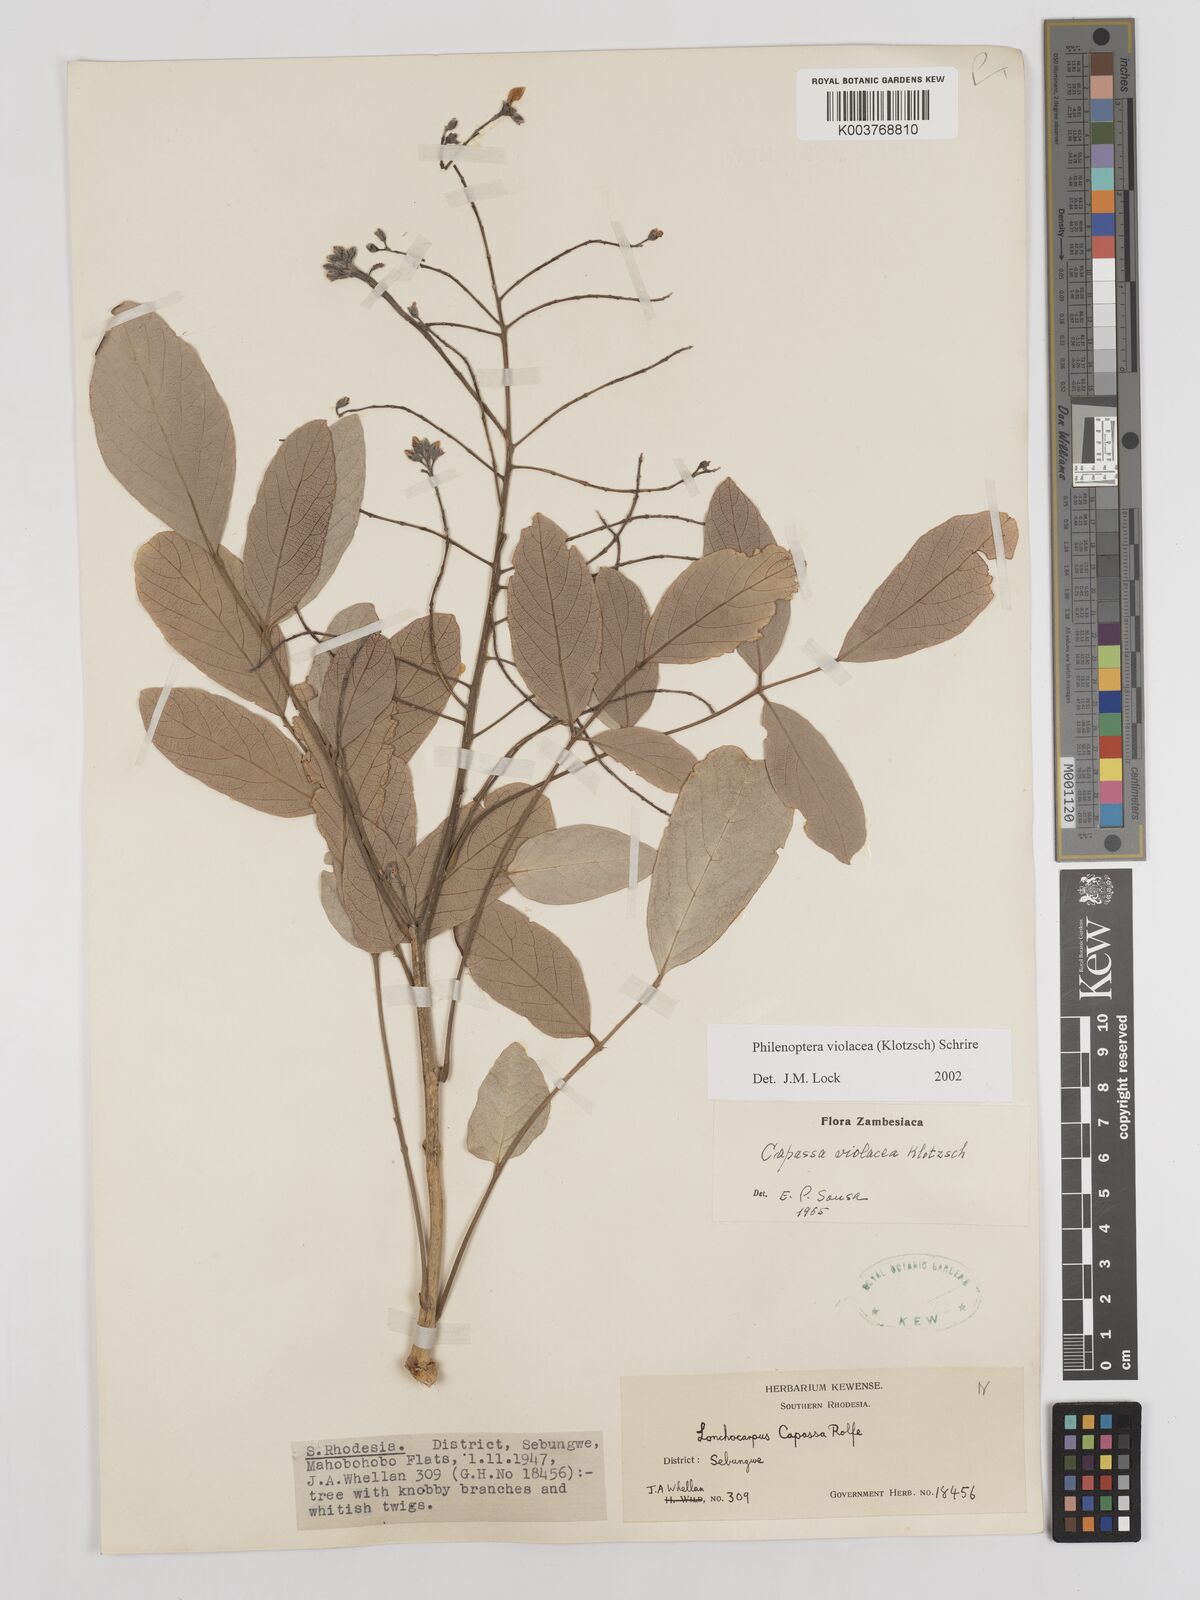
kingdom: Plantae
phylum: Tracheophyta
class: Magnoliopsida
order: Fabales
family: Fabaceae
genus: Philenoptera
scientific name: Philenoptera violacea
